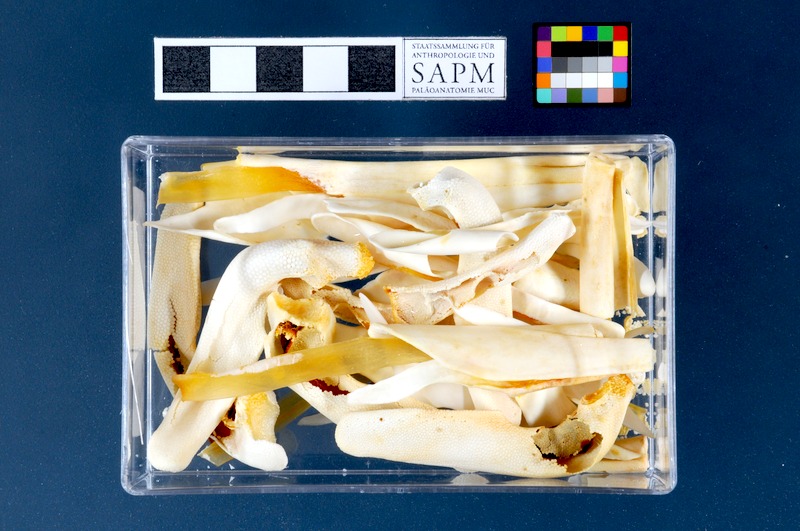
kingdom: Animalia
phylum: Chordata
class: Elasmobranchii
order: Rajiformes
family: Rajidae
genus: Raja
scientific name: Raja clavata
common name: Thornback ray
